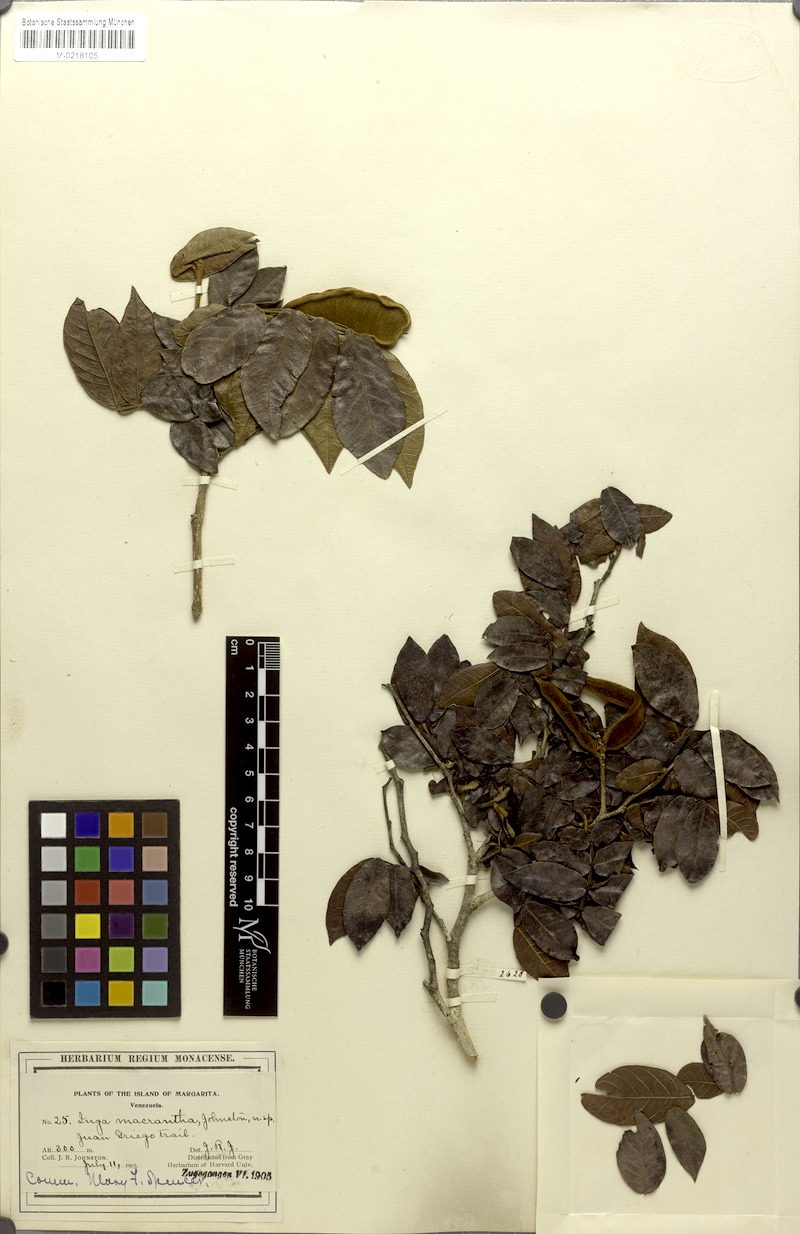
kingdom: Plantae
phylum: Tracheophyta
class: Magnoliopsida
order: Fabales
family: Fabaceae
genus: Inga
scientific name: Inga macrantha
